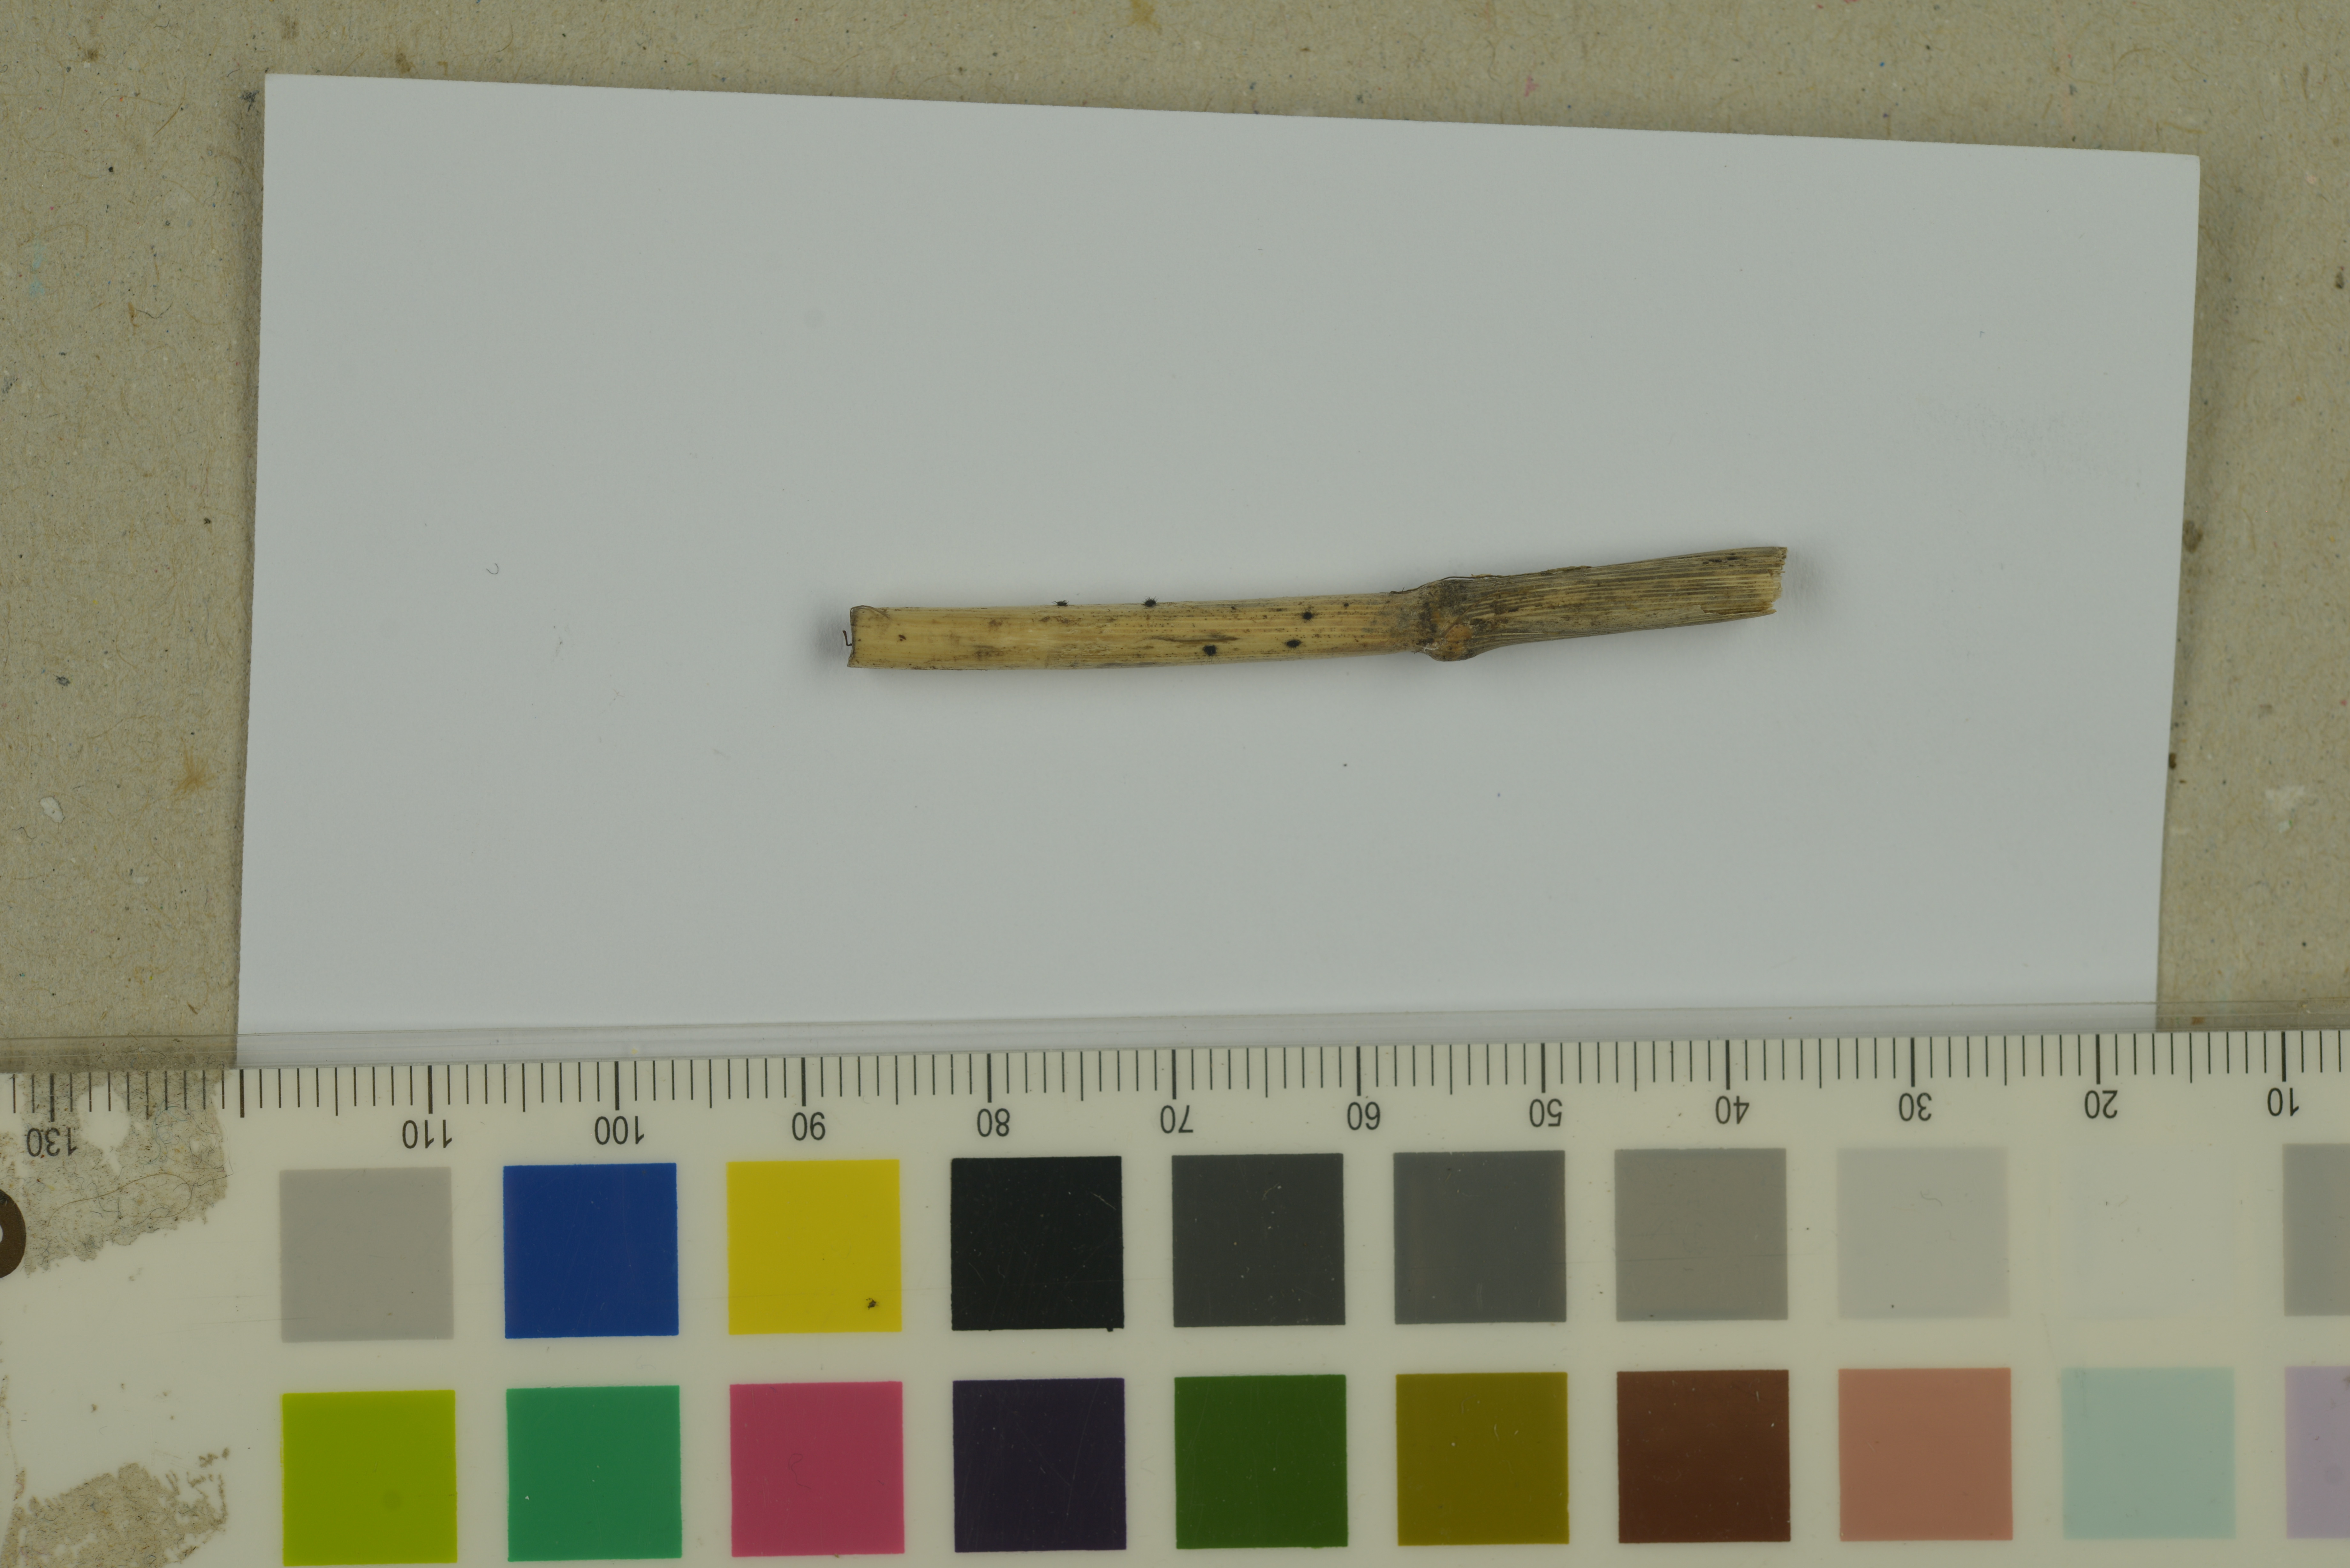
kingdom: Fungi
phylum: Ascomycota
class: Sordariomycetes
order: Phomatosporales
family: Phomatosporaceae
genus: Phomatospora
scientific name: Phomatospora dinemasporium
